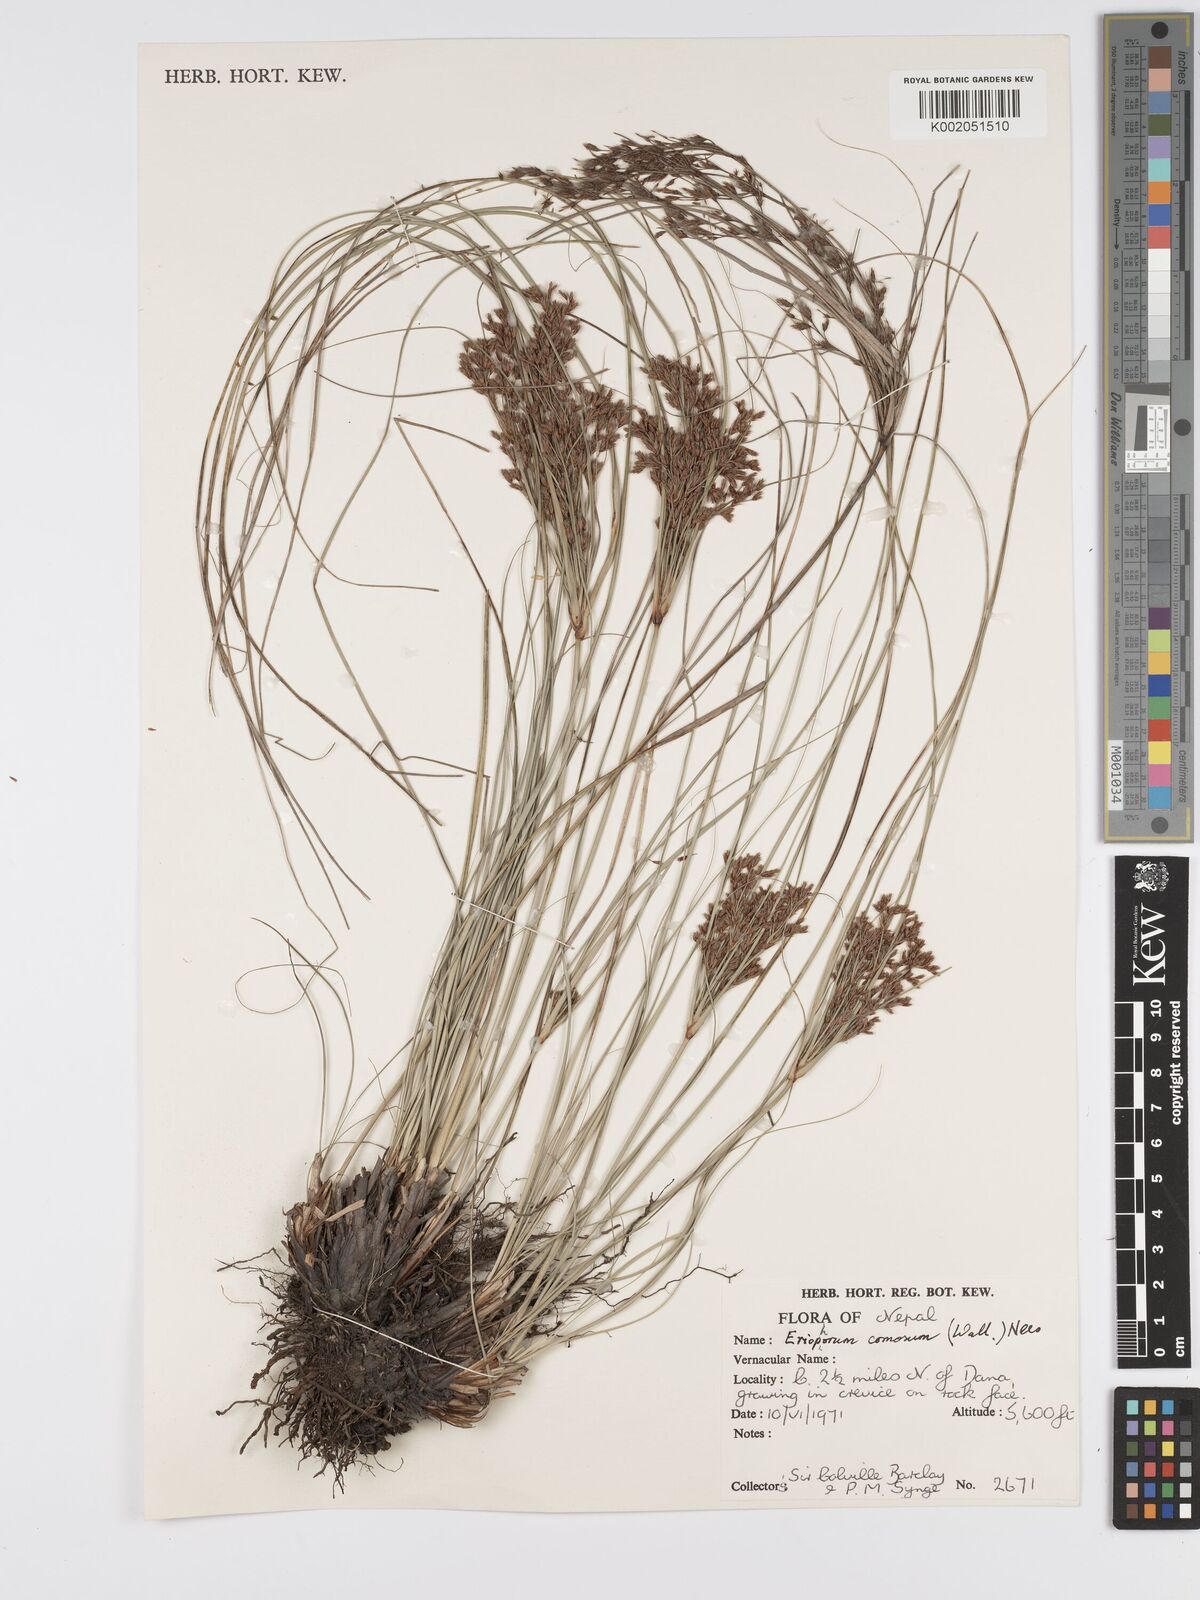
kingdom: Plantae
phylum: Tracheophyta
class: Liliopsida
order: Poales
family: Cyperaceae
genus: Erioscirpus
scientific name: Erioscirpus comosus
